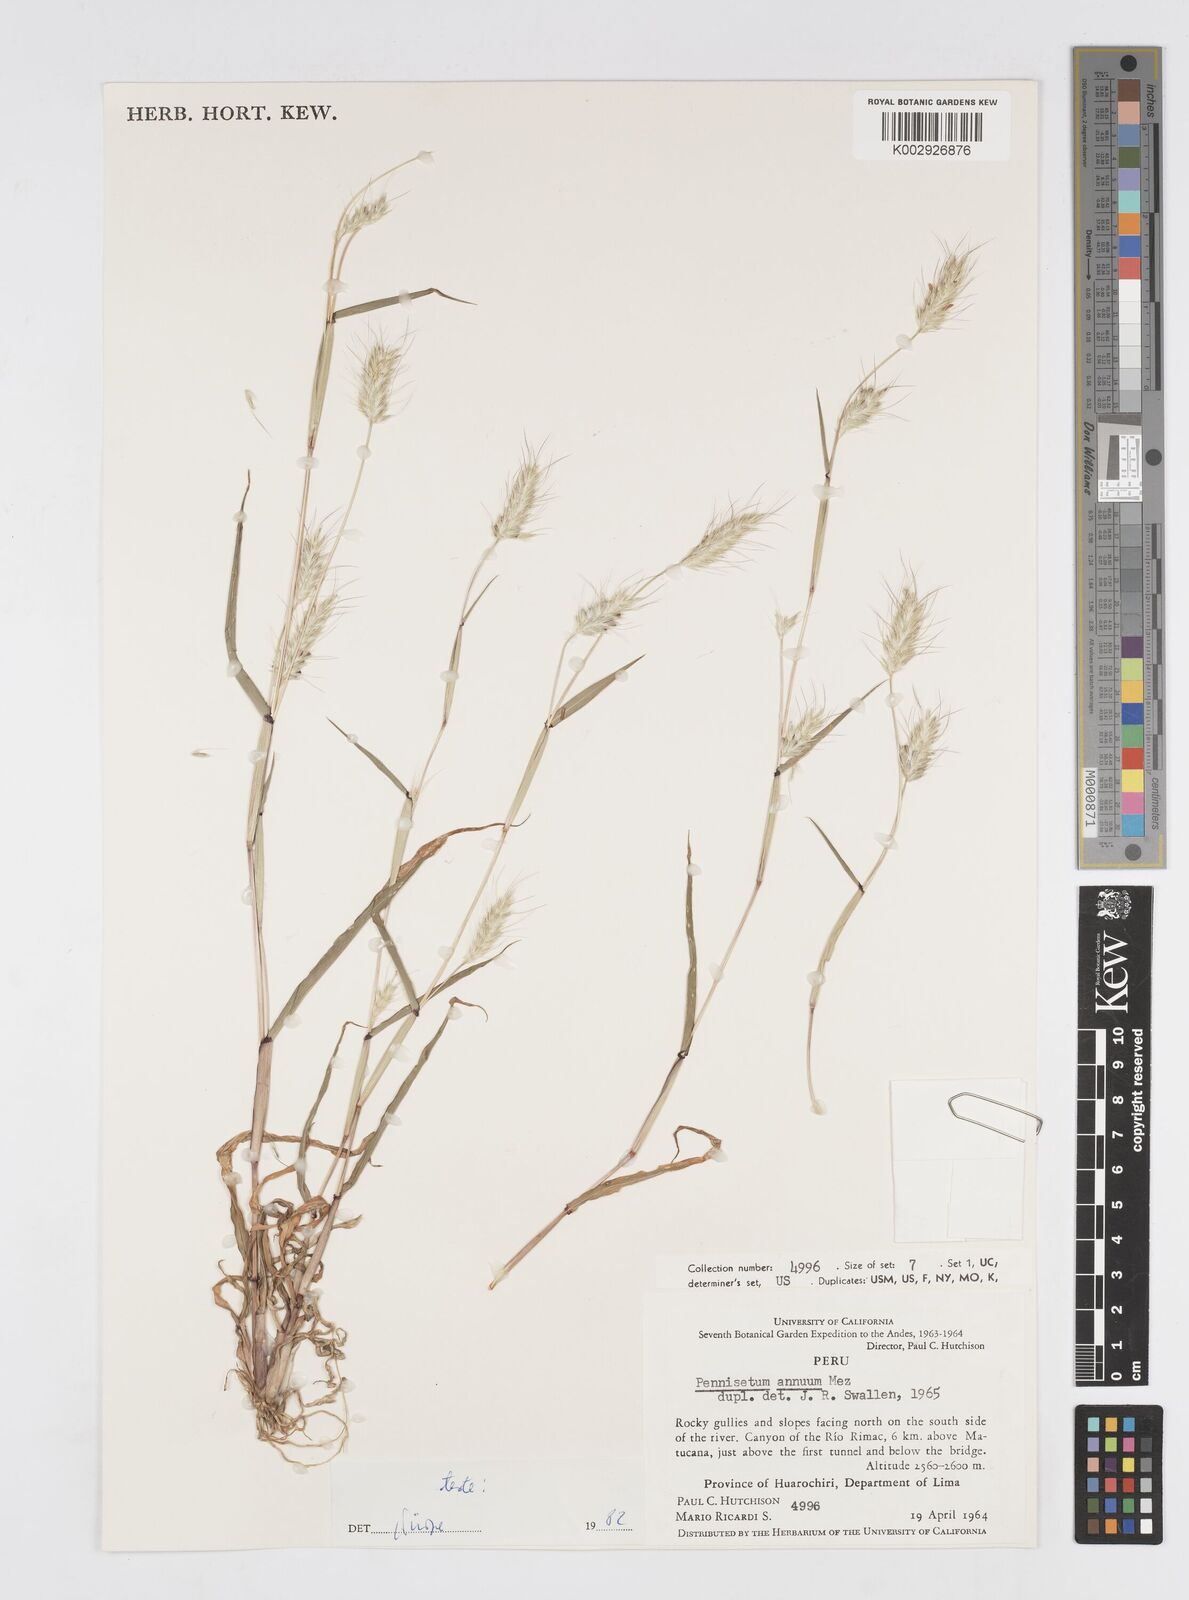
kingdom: Plantae
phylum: Tracheophyta
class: Liliopsida
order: Poales
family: Poaceae
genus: Cenchrus
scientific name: Cenchrus annuus
